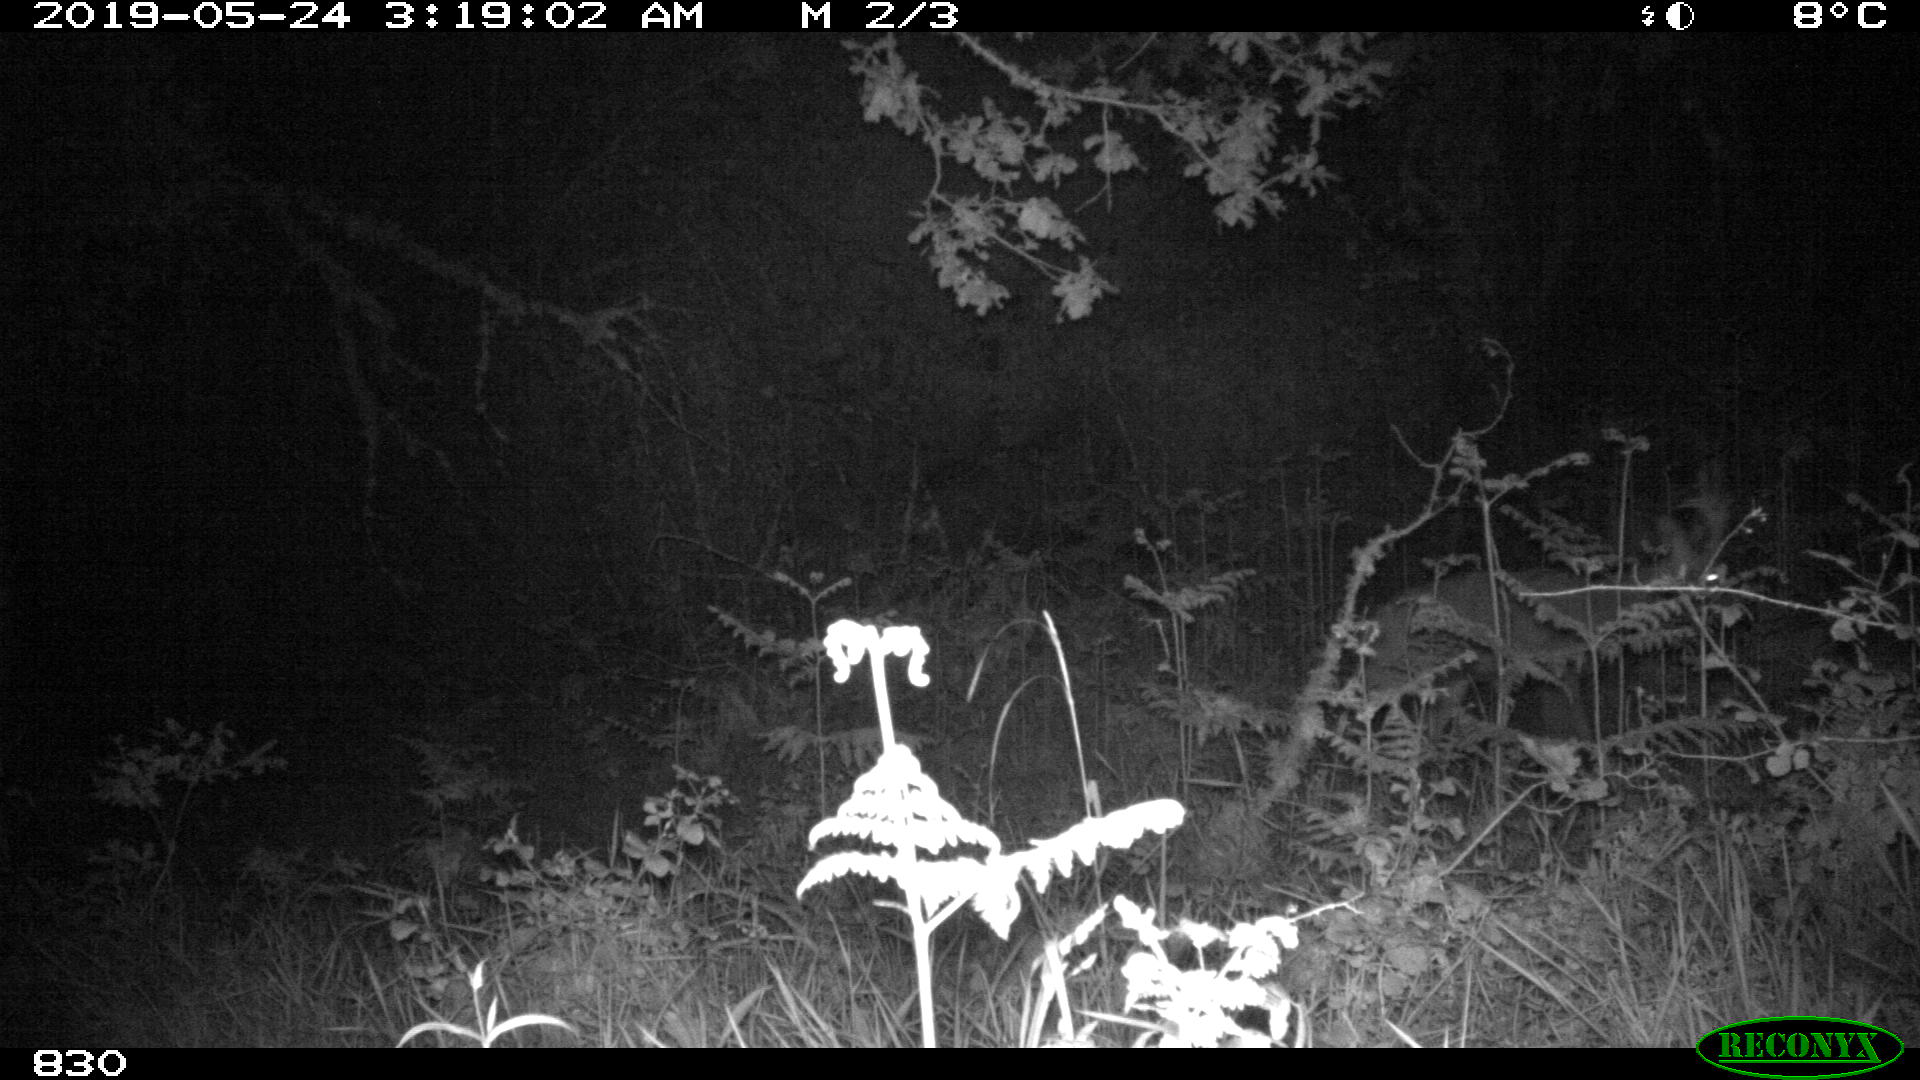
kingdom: Animalia
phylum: Chordata
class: Mammalia
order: Artiodactyla
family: Cervidae
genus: Capreolus
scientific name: Capreolus capreolus
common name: Western roe deer
